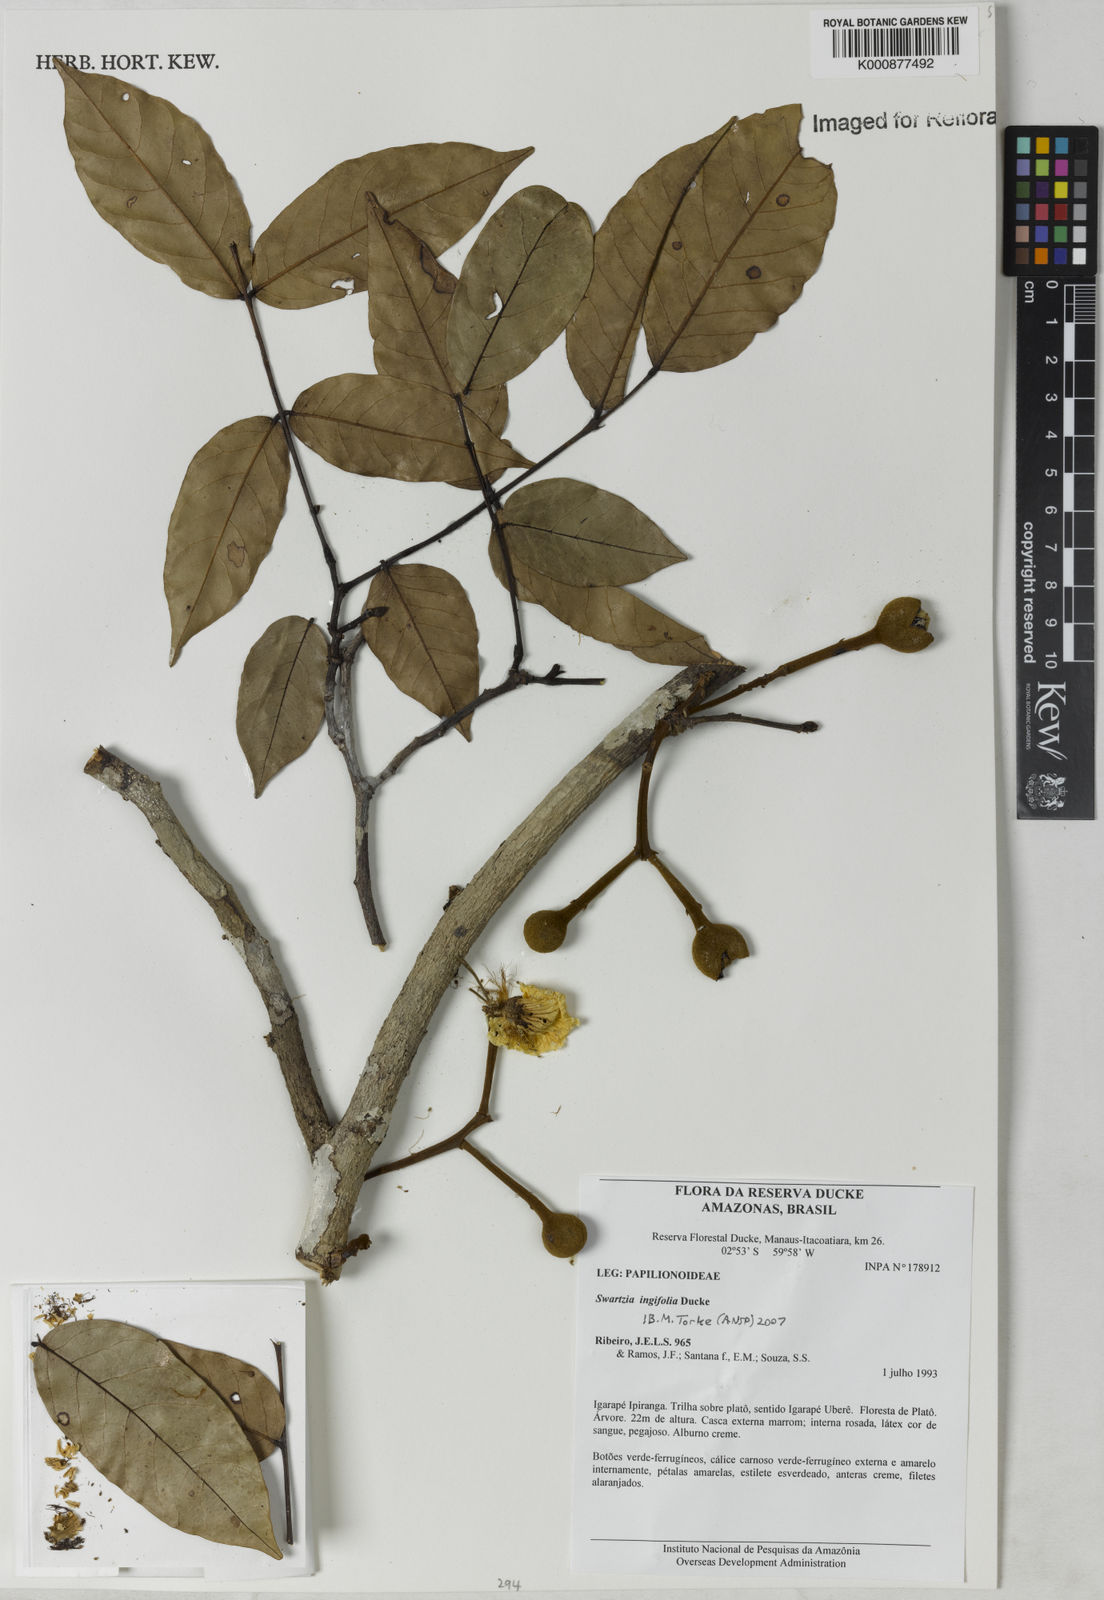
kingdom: Plantae
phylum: Tracheophyta
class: Magnoliopsida
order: Fabales
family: Fabaceae
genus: Swartzia
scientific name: Swartzia ingifolia
